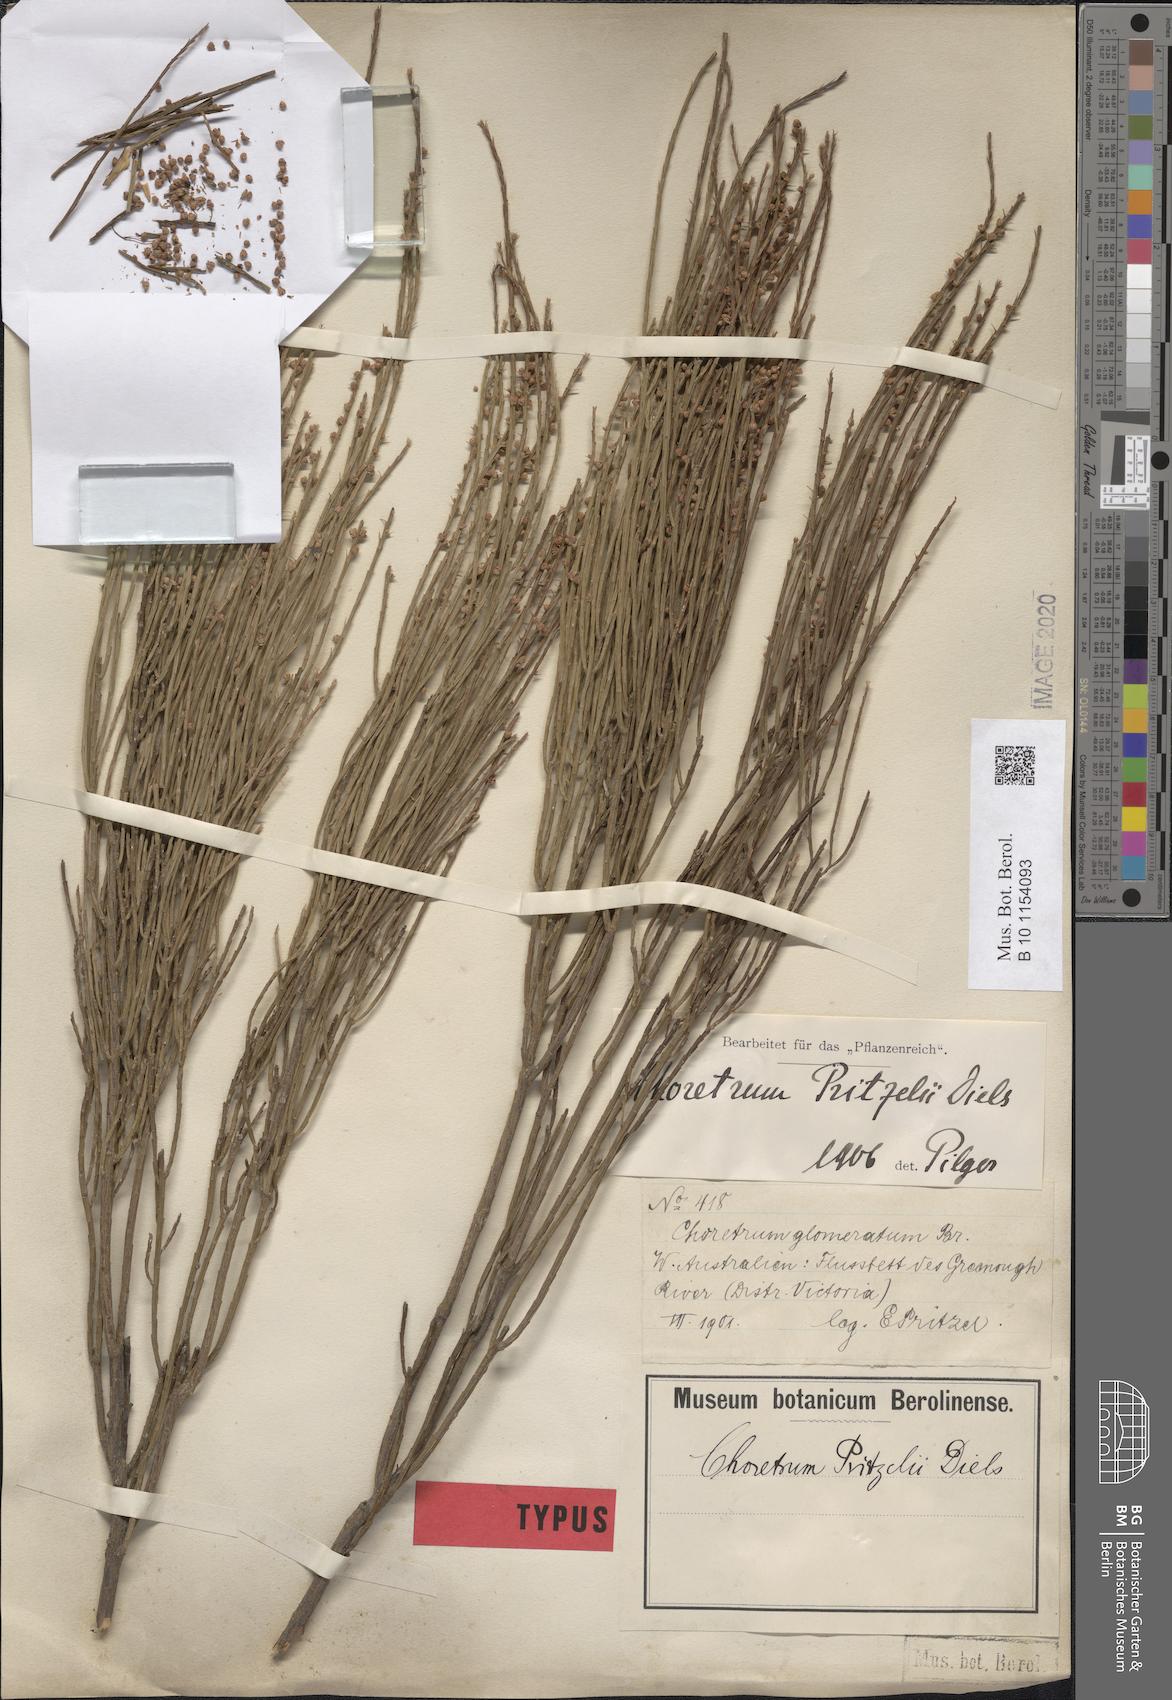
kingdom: Plantae
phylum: Tracheophyta
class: Magnoliopsida
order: Santalales
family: Amphorogynaceae
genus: Choretrum
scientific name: Choretrum pritzelii
